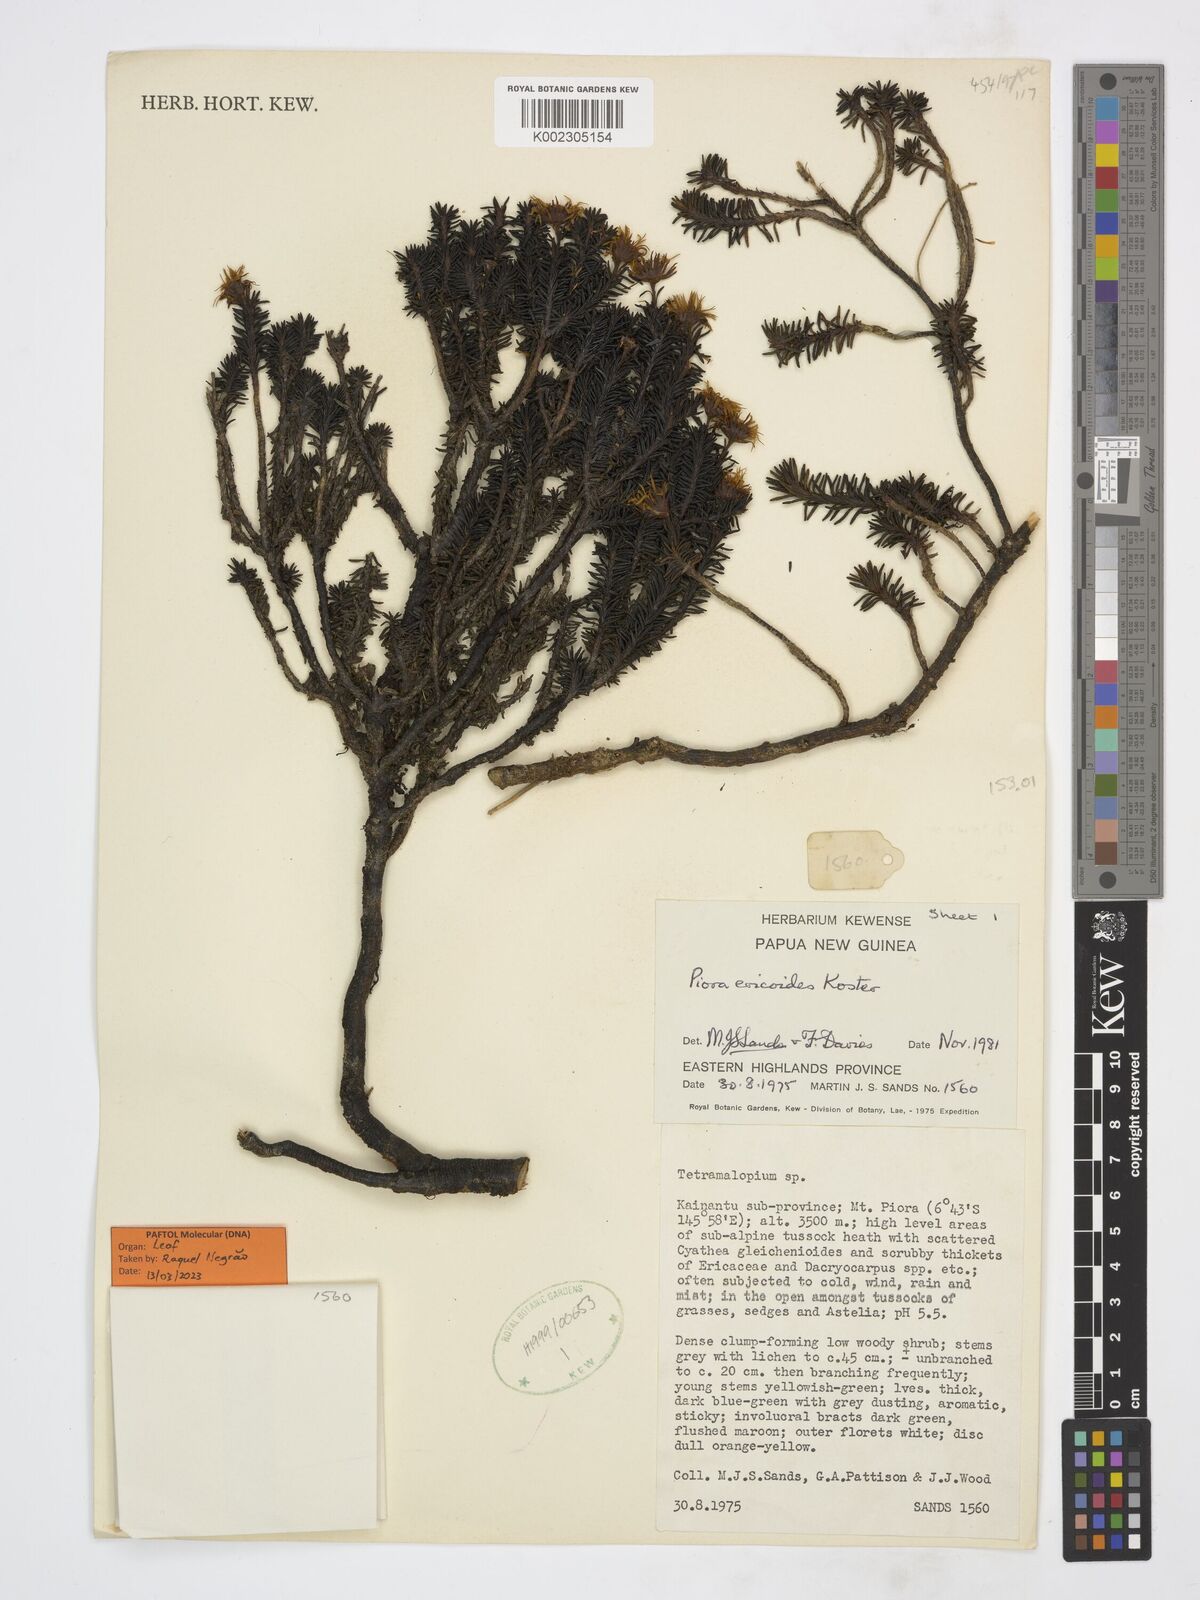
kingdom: Plantae
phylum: Tracheophyta
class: Magnoliopsida
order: Asterales
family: Asteraceae
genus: Piora
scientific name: Piora ericoides
